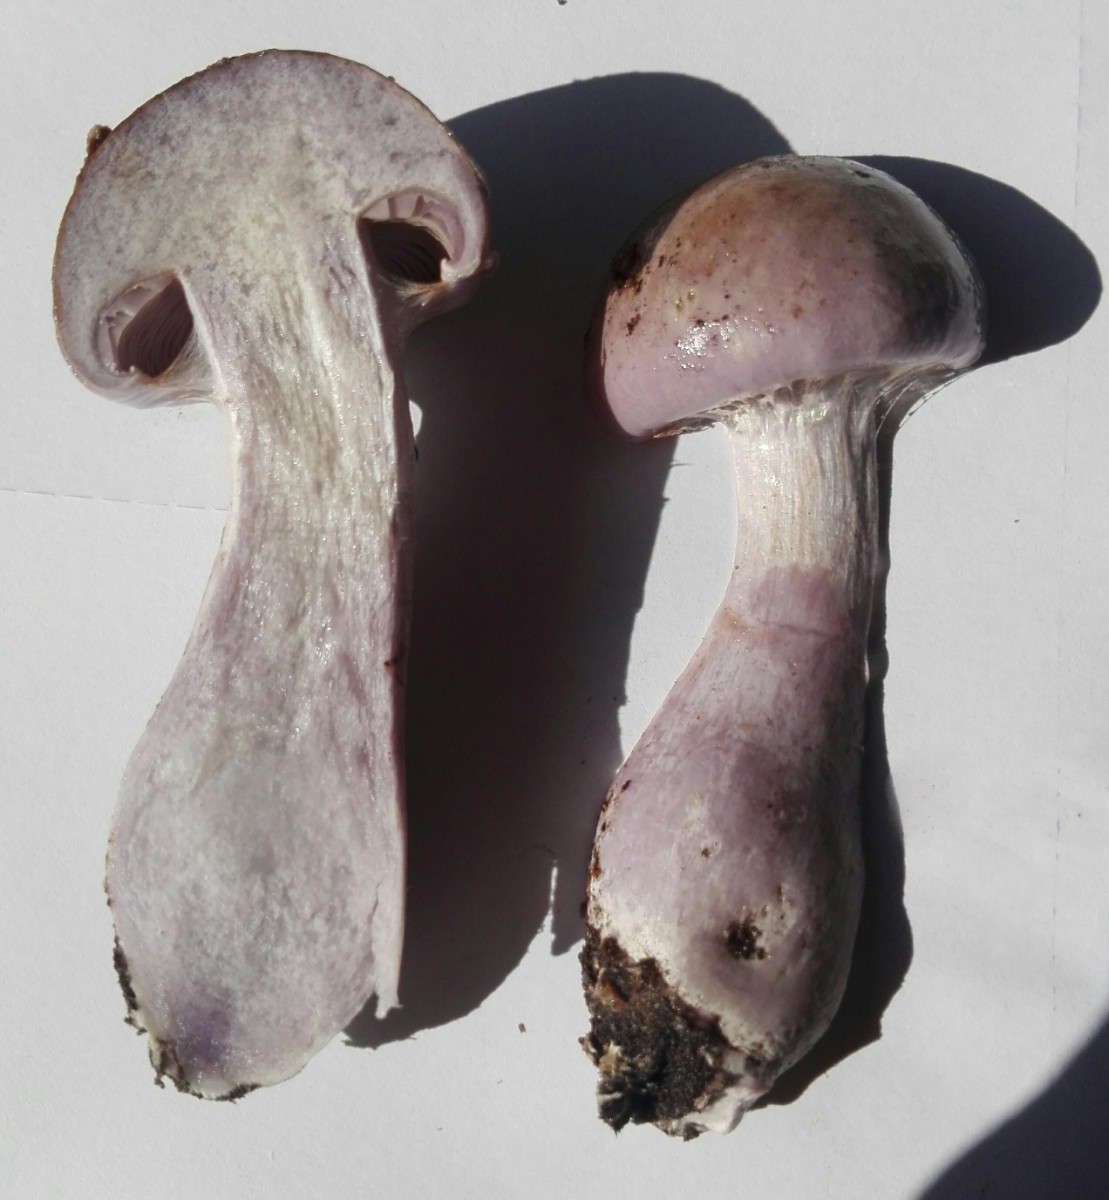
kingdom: Fungi
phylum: Basidiomycota
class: Agaricomycetes
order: Agaricales
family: Cortinariaceae
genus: Cortinarius
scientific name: Cortinarius largus
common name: violetrandet slørhat
